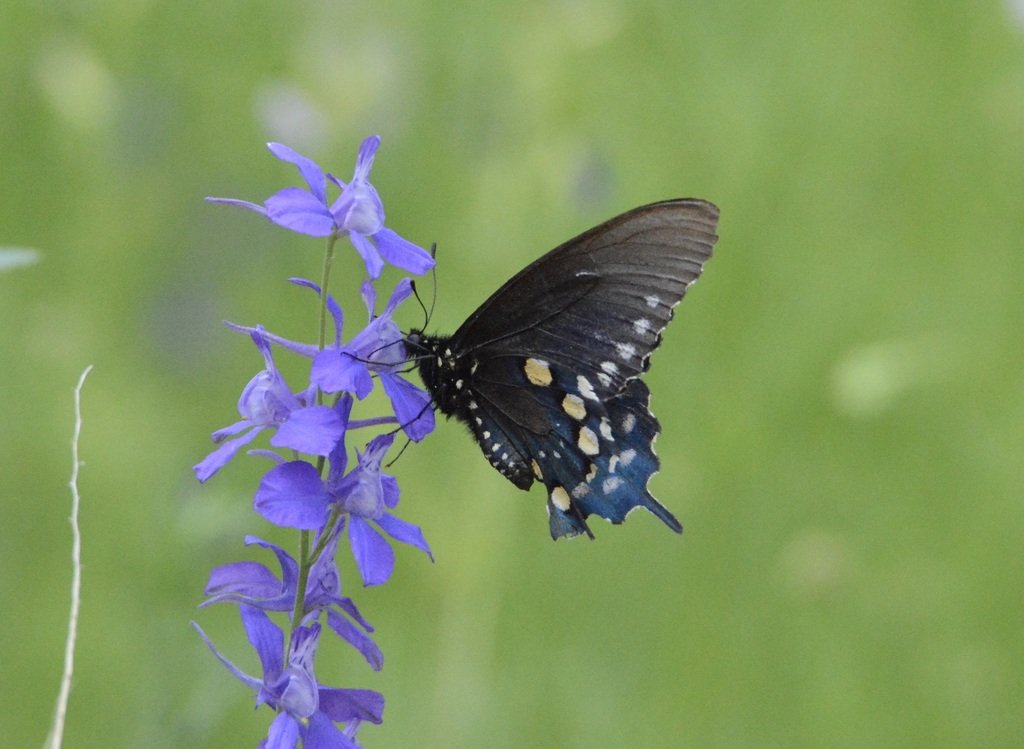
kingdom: Animalia
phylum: Arthropoda
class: Insecta
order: Lepidoptera
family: Papilionidae
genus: Battus
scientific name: Battus philenor
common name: Pipevine Swallowtail
